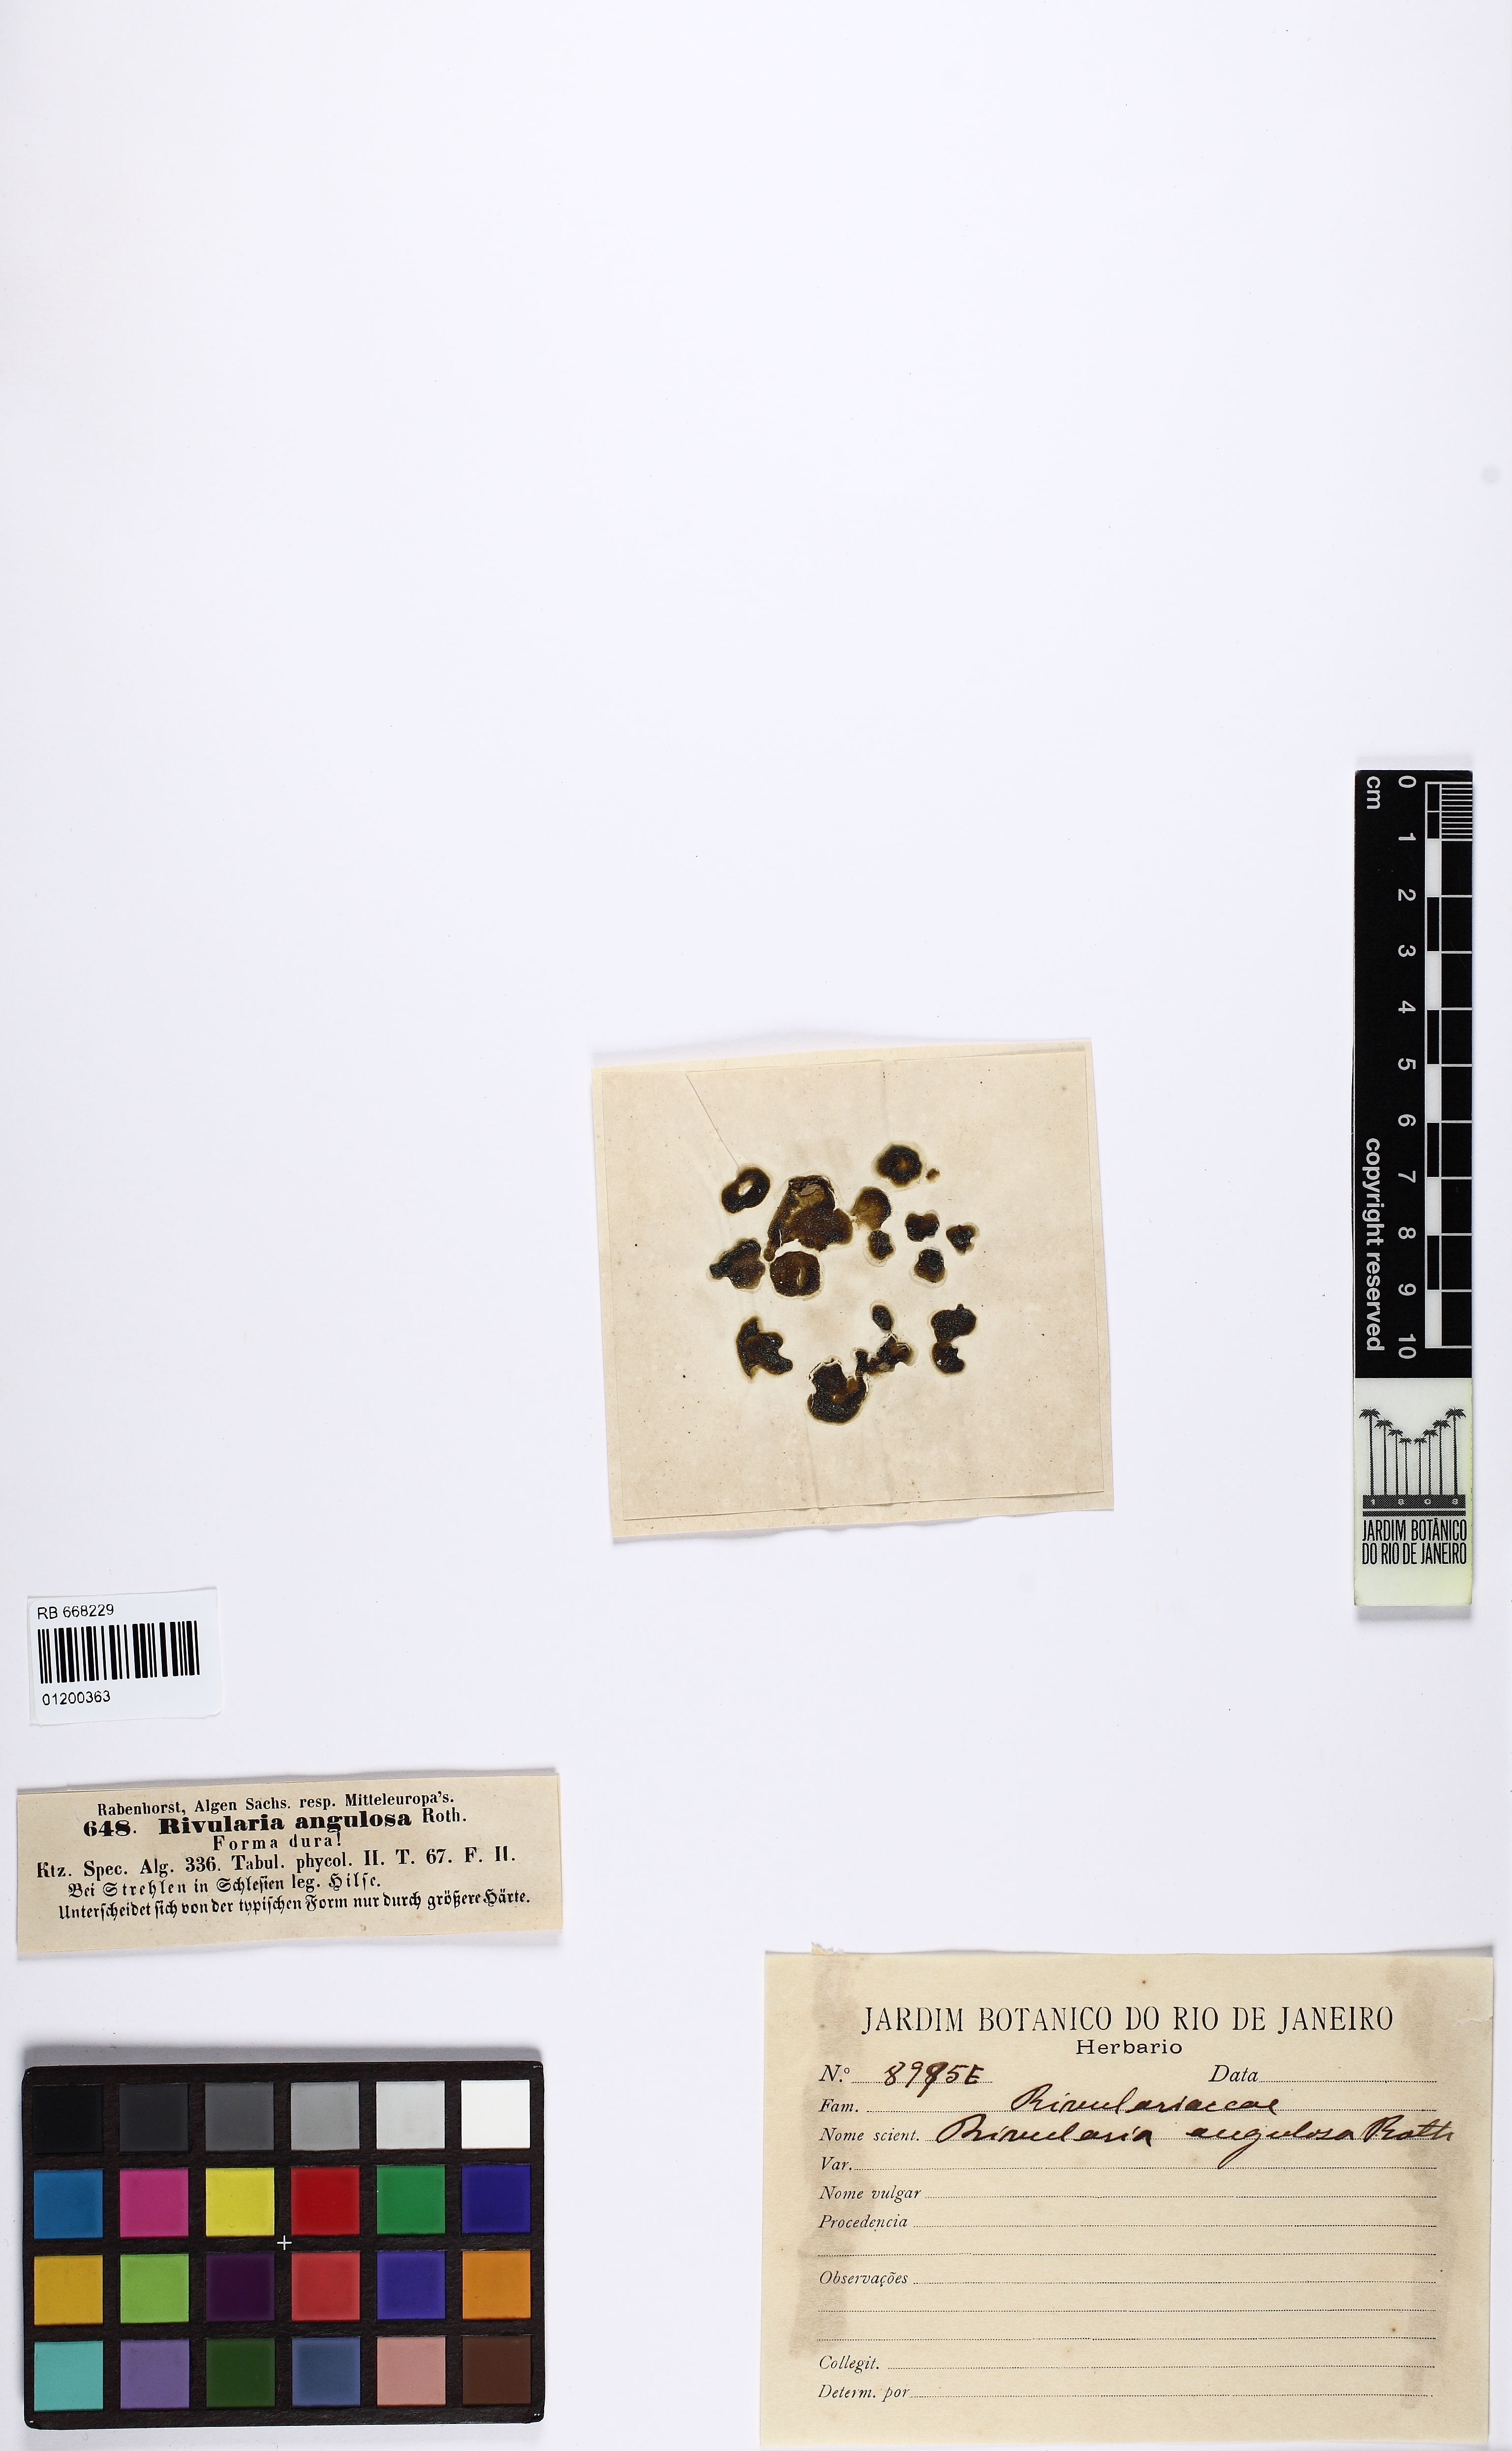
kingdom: Bacteria
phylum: Cyanobacteria
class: Cyanobacteriia
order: Cyanobacteriales
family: Rivulariaceae
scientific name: Rivulariaceae
